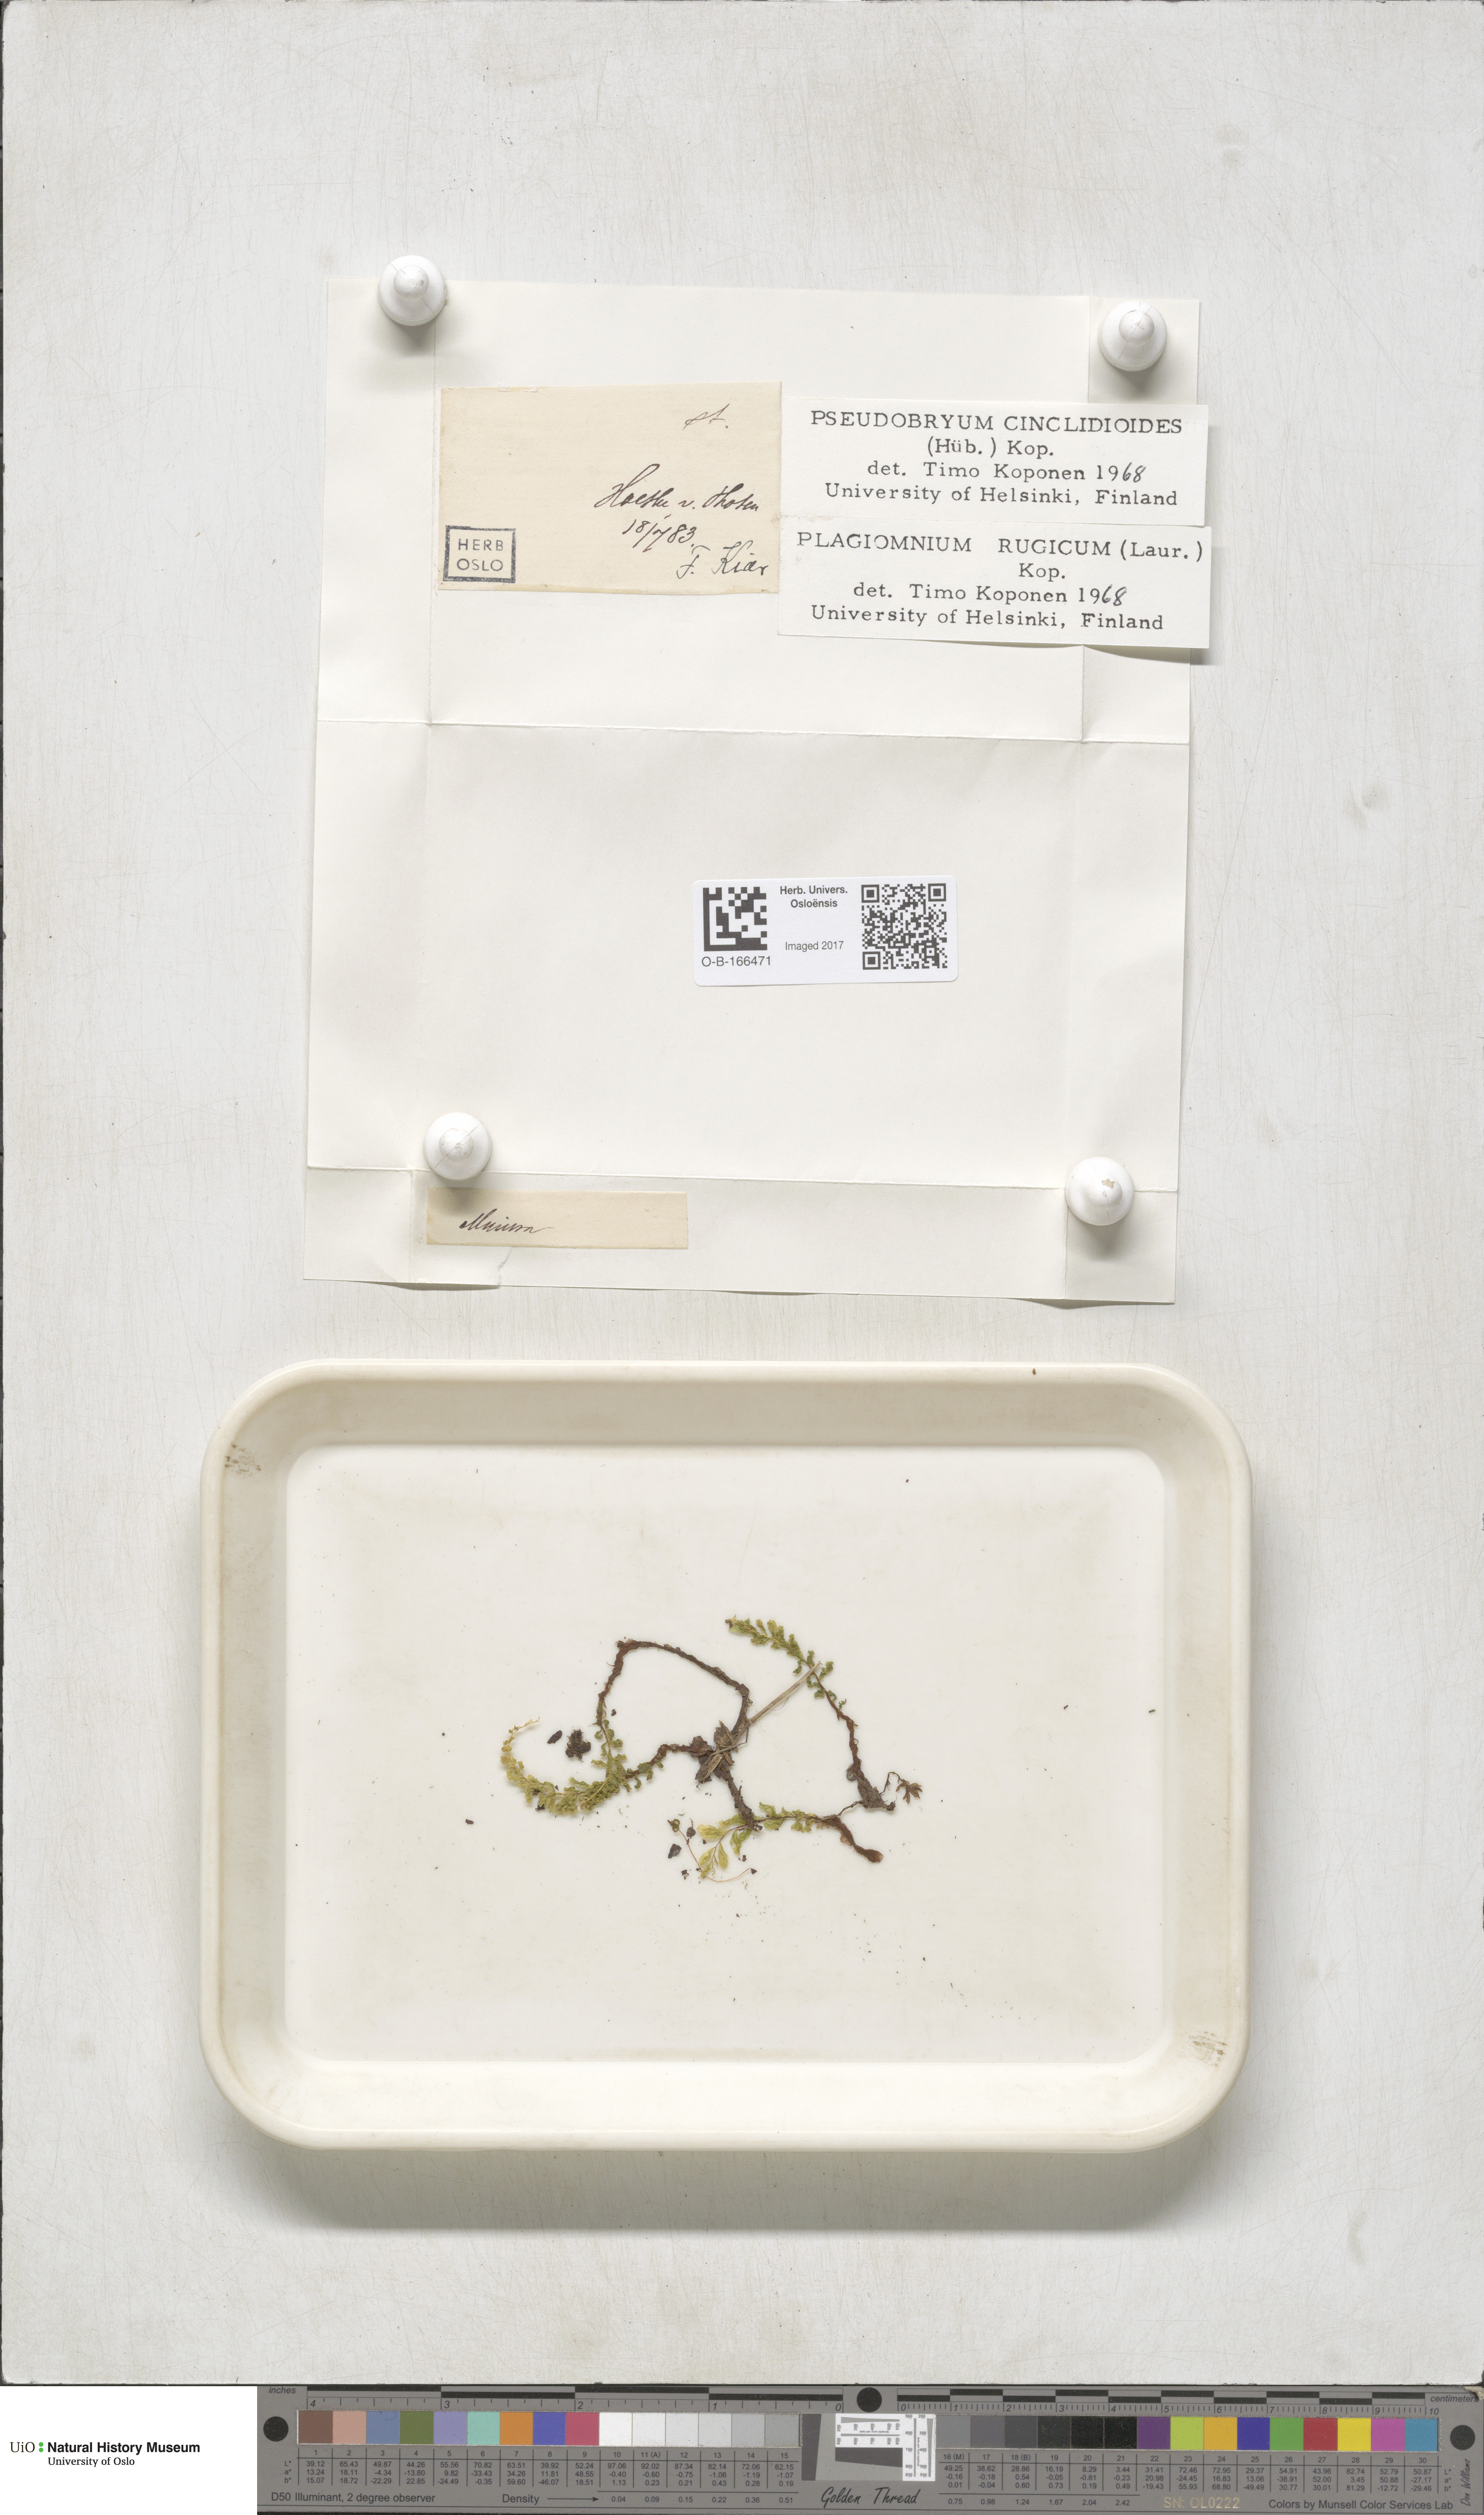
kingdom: Plantae
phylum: Bryophyta
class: Bryopsida
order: Bryales
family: Mniaceae
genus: Pseudobryum
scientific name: Pseudobryum cinclidioides
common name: River thyme moss
